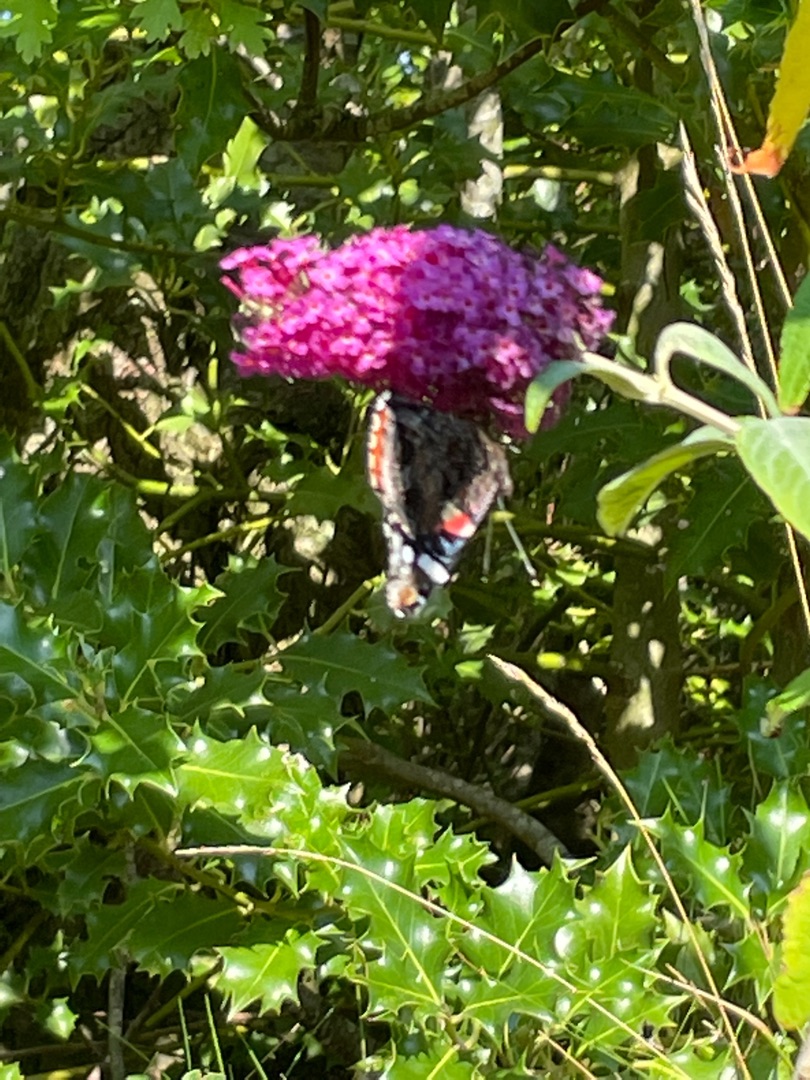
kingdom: Animalia
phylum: Arthropoda
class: Insecta
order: Lepidoptera
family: Nymphalidae
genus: Vanessa
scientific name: Vanessa atalanta
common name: Admiral
